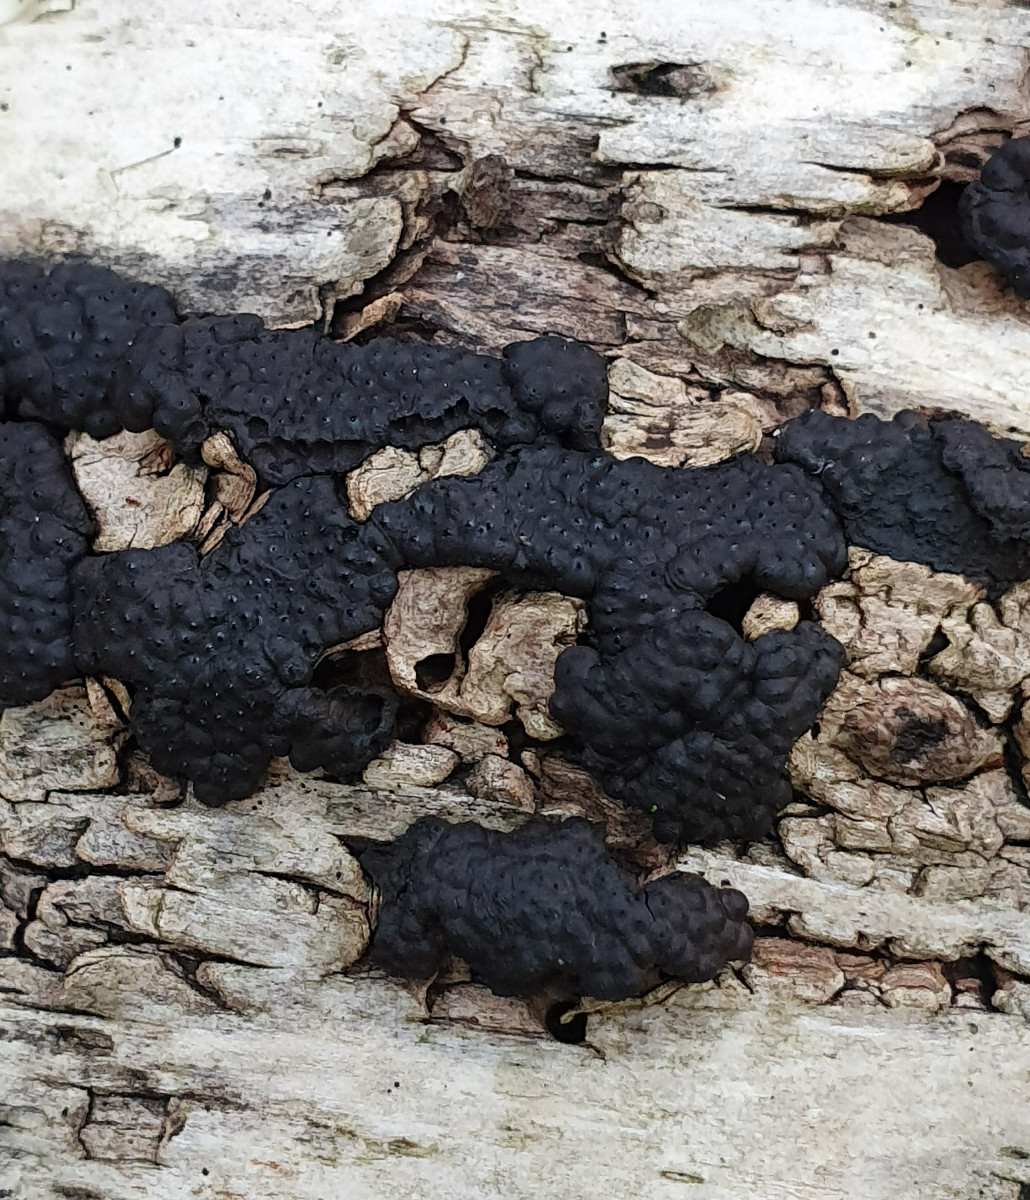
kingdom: Fungi
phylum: Ascomycota
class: Sordariomycetes
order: Xylariales
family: Hypoxylaceae
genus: Jackrogersella
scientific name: Jackrogersella multiformis
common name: foranderlig kulbær
